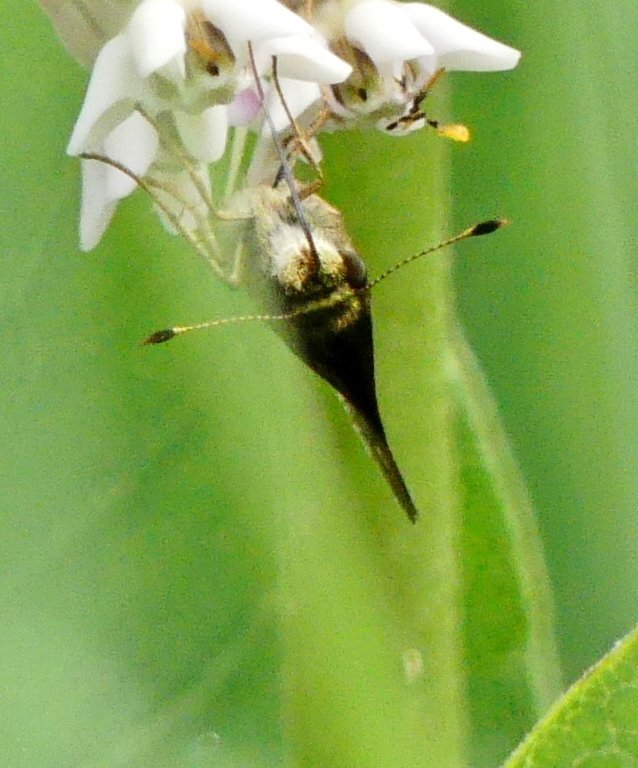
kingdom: Animalia
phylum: Arthropoda
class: Insecta
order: Lepidoptera
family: Hesperiidae
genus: Vernia
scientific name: Vernia verna
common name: Little Glassywing
